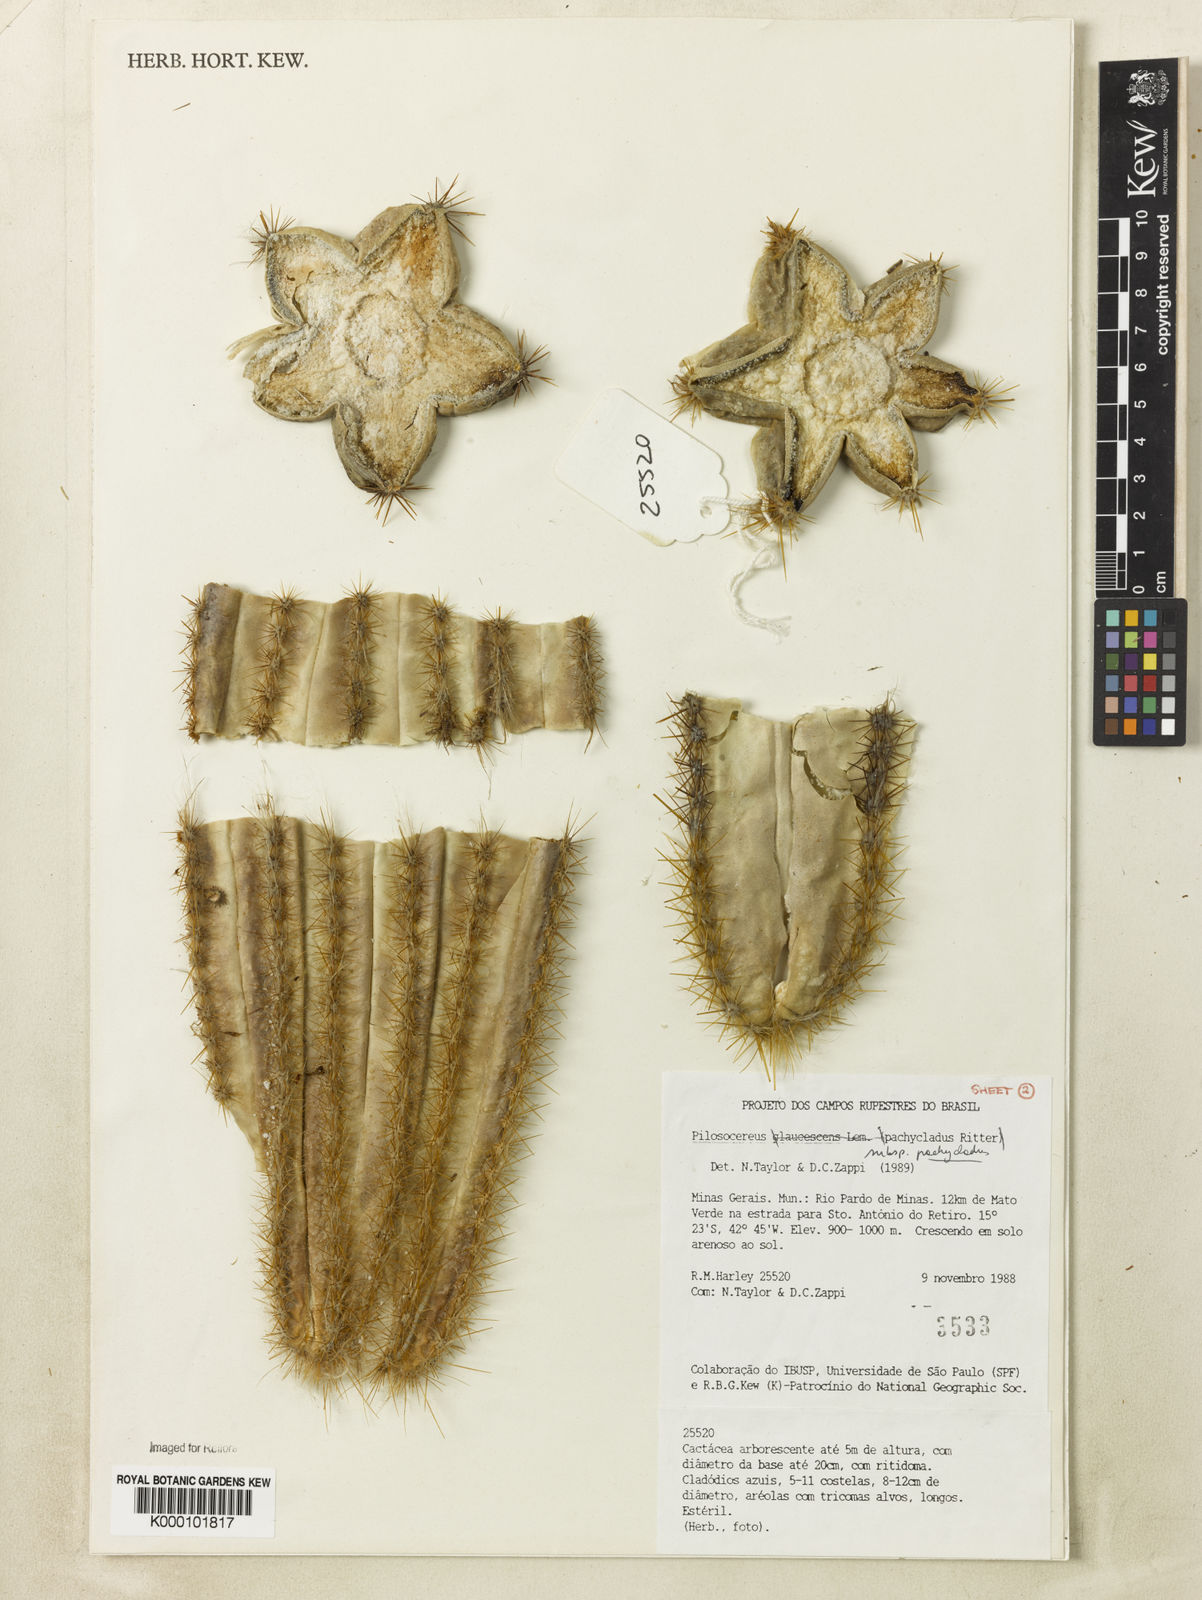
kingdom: Plantae
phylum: Tracheophyta
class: Magnoliopsida
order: Caryophyllales
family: Cactaceae
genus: Pilosocereus
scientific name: Pilosocereus pachycladus
